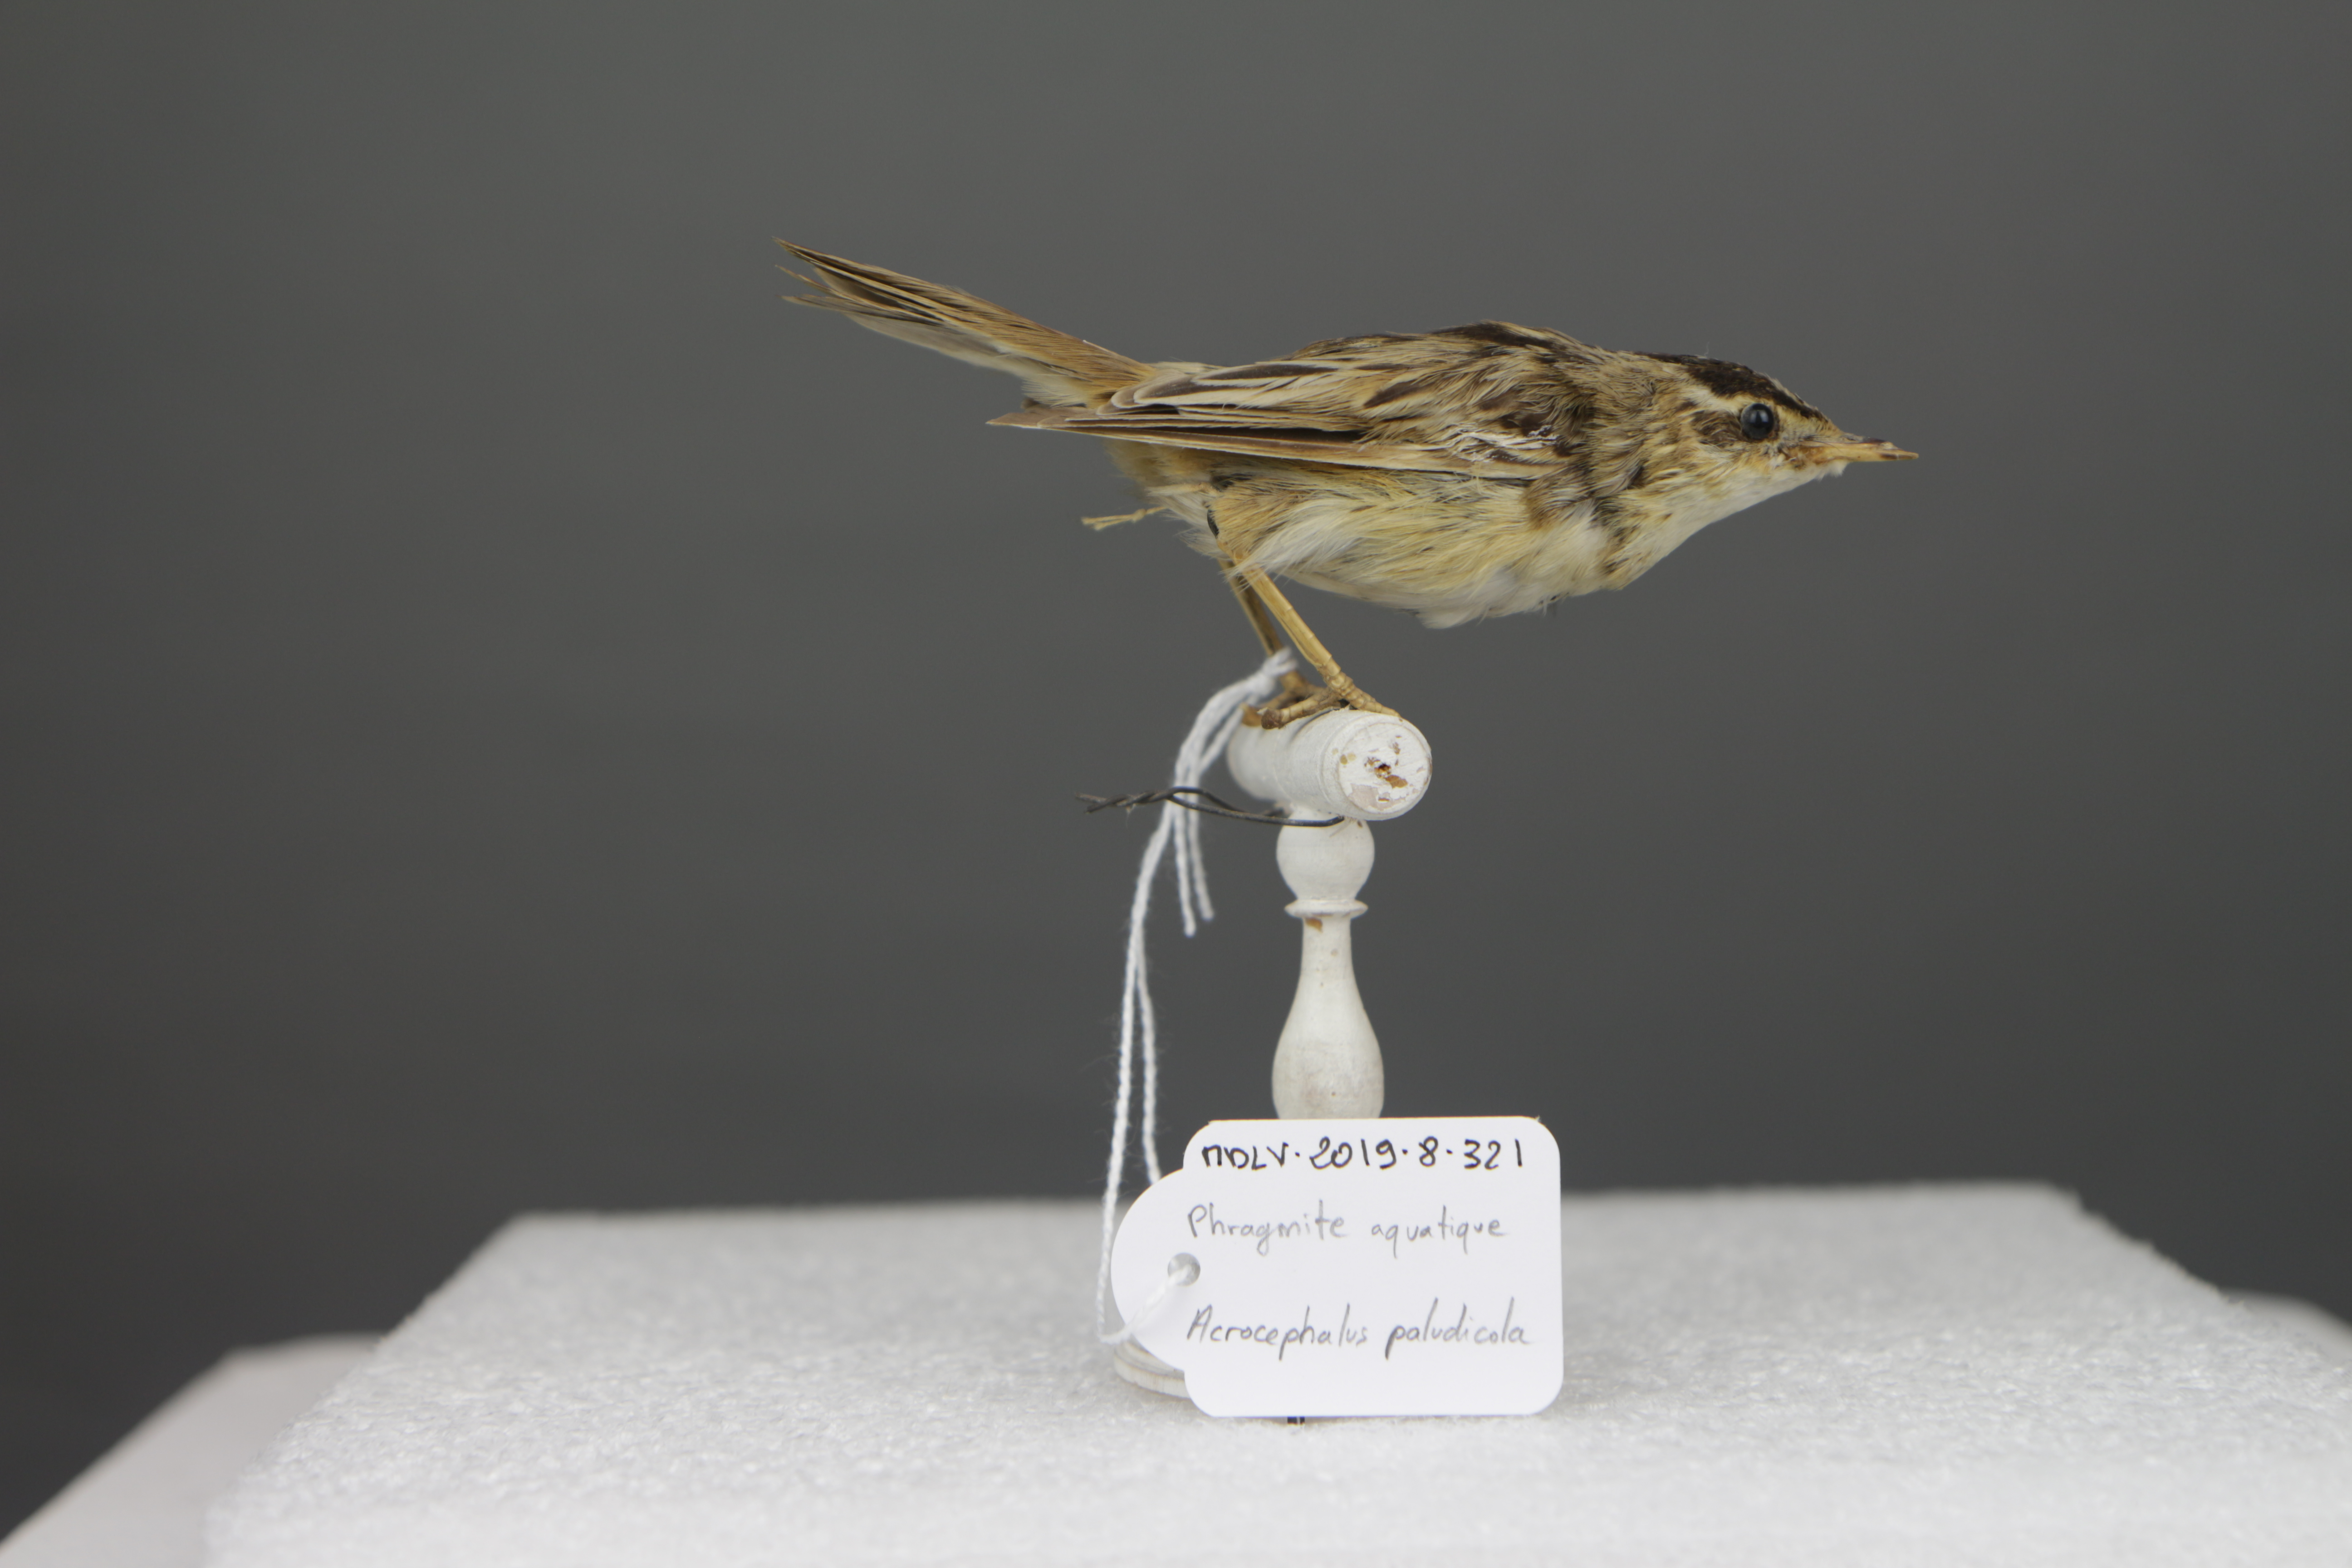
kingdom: Animalia
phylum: Chordata
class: Aves
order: Passeriformes
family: Acrocephalidae
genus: Acrocephalus
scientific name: Acrocephalus paludicola
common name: Aquatic warbler
